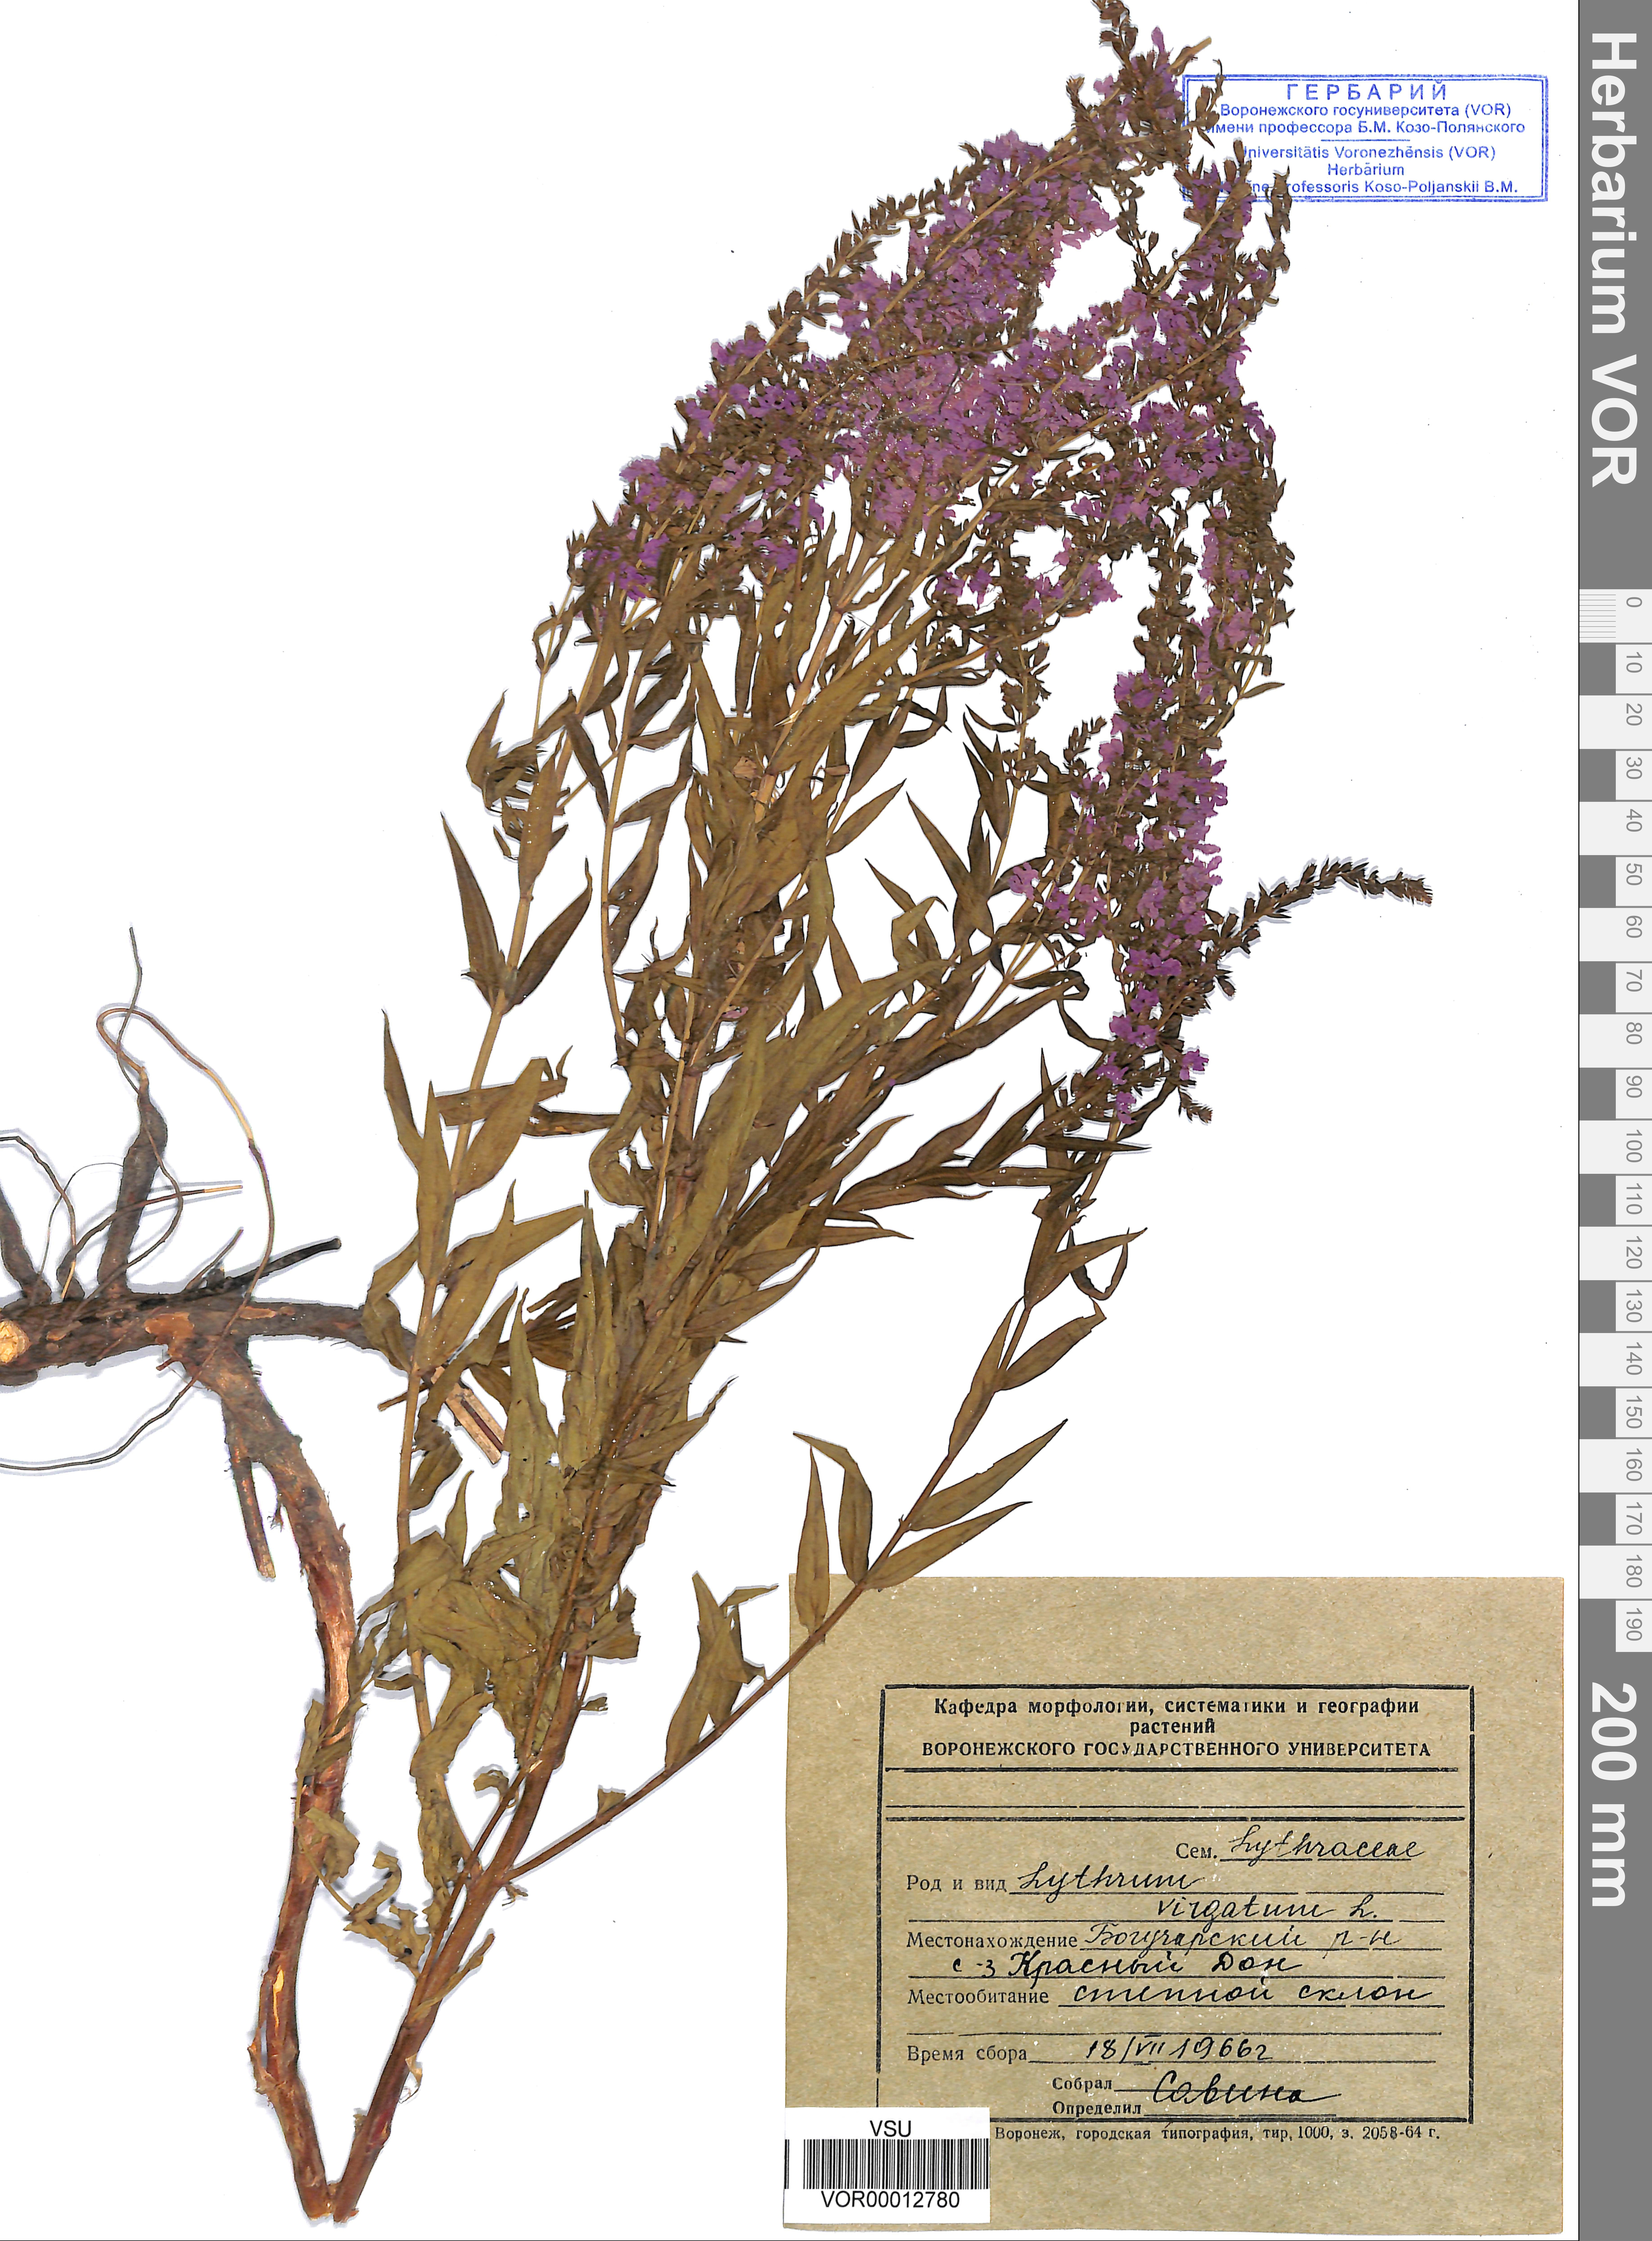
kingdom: Plantae
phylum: Tracheophyta
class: Magnoliopsida
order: Myrtales
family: Lythraceae
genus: Lythrum
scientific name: Lythrum virgatum
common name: European wand loosestrife
